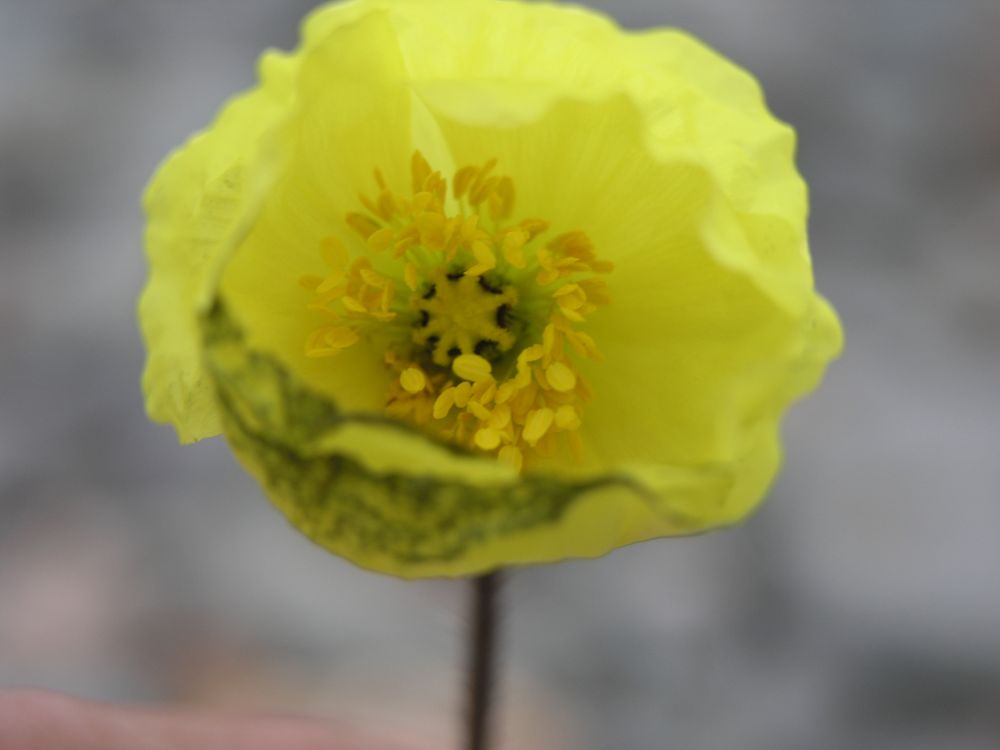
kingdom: Plantae
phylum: Tracheophyta
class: Magnoliopsida
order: Ranunculales
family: Papaveraceae
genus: Papaver
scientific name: Papaver canescens
